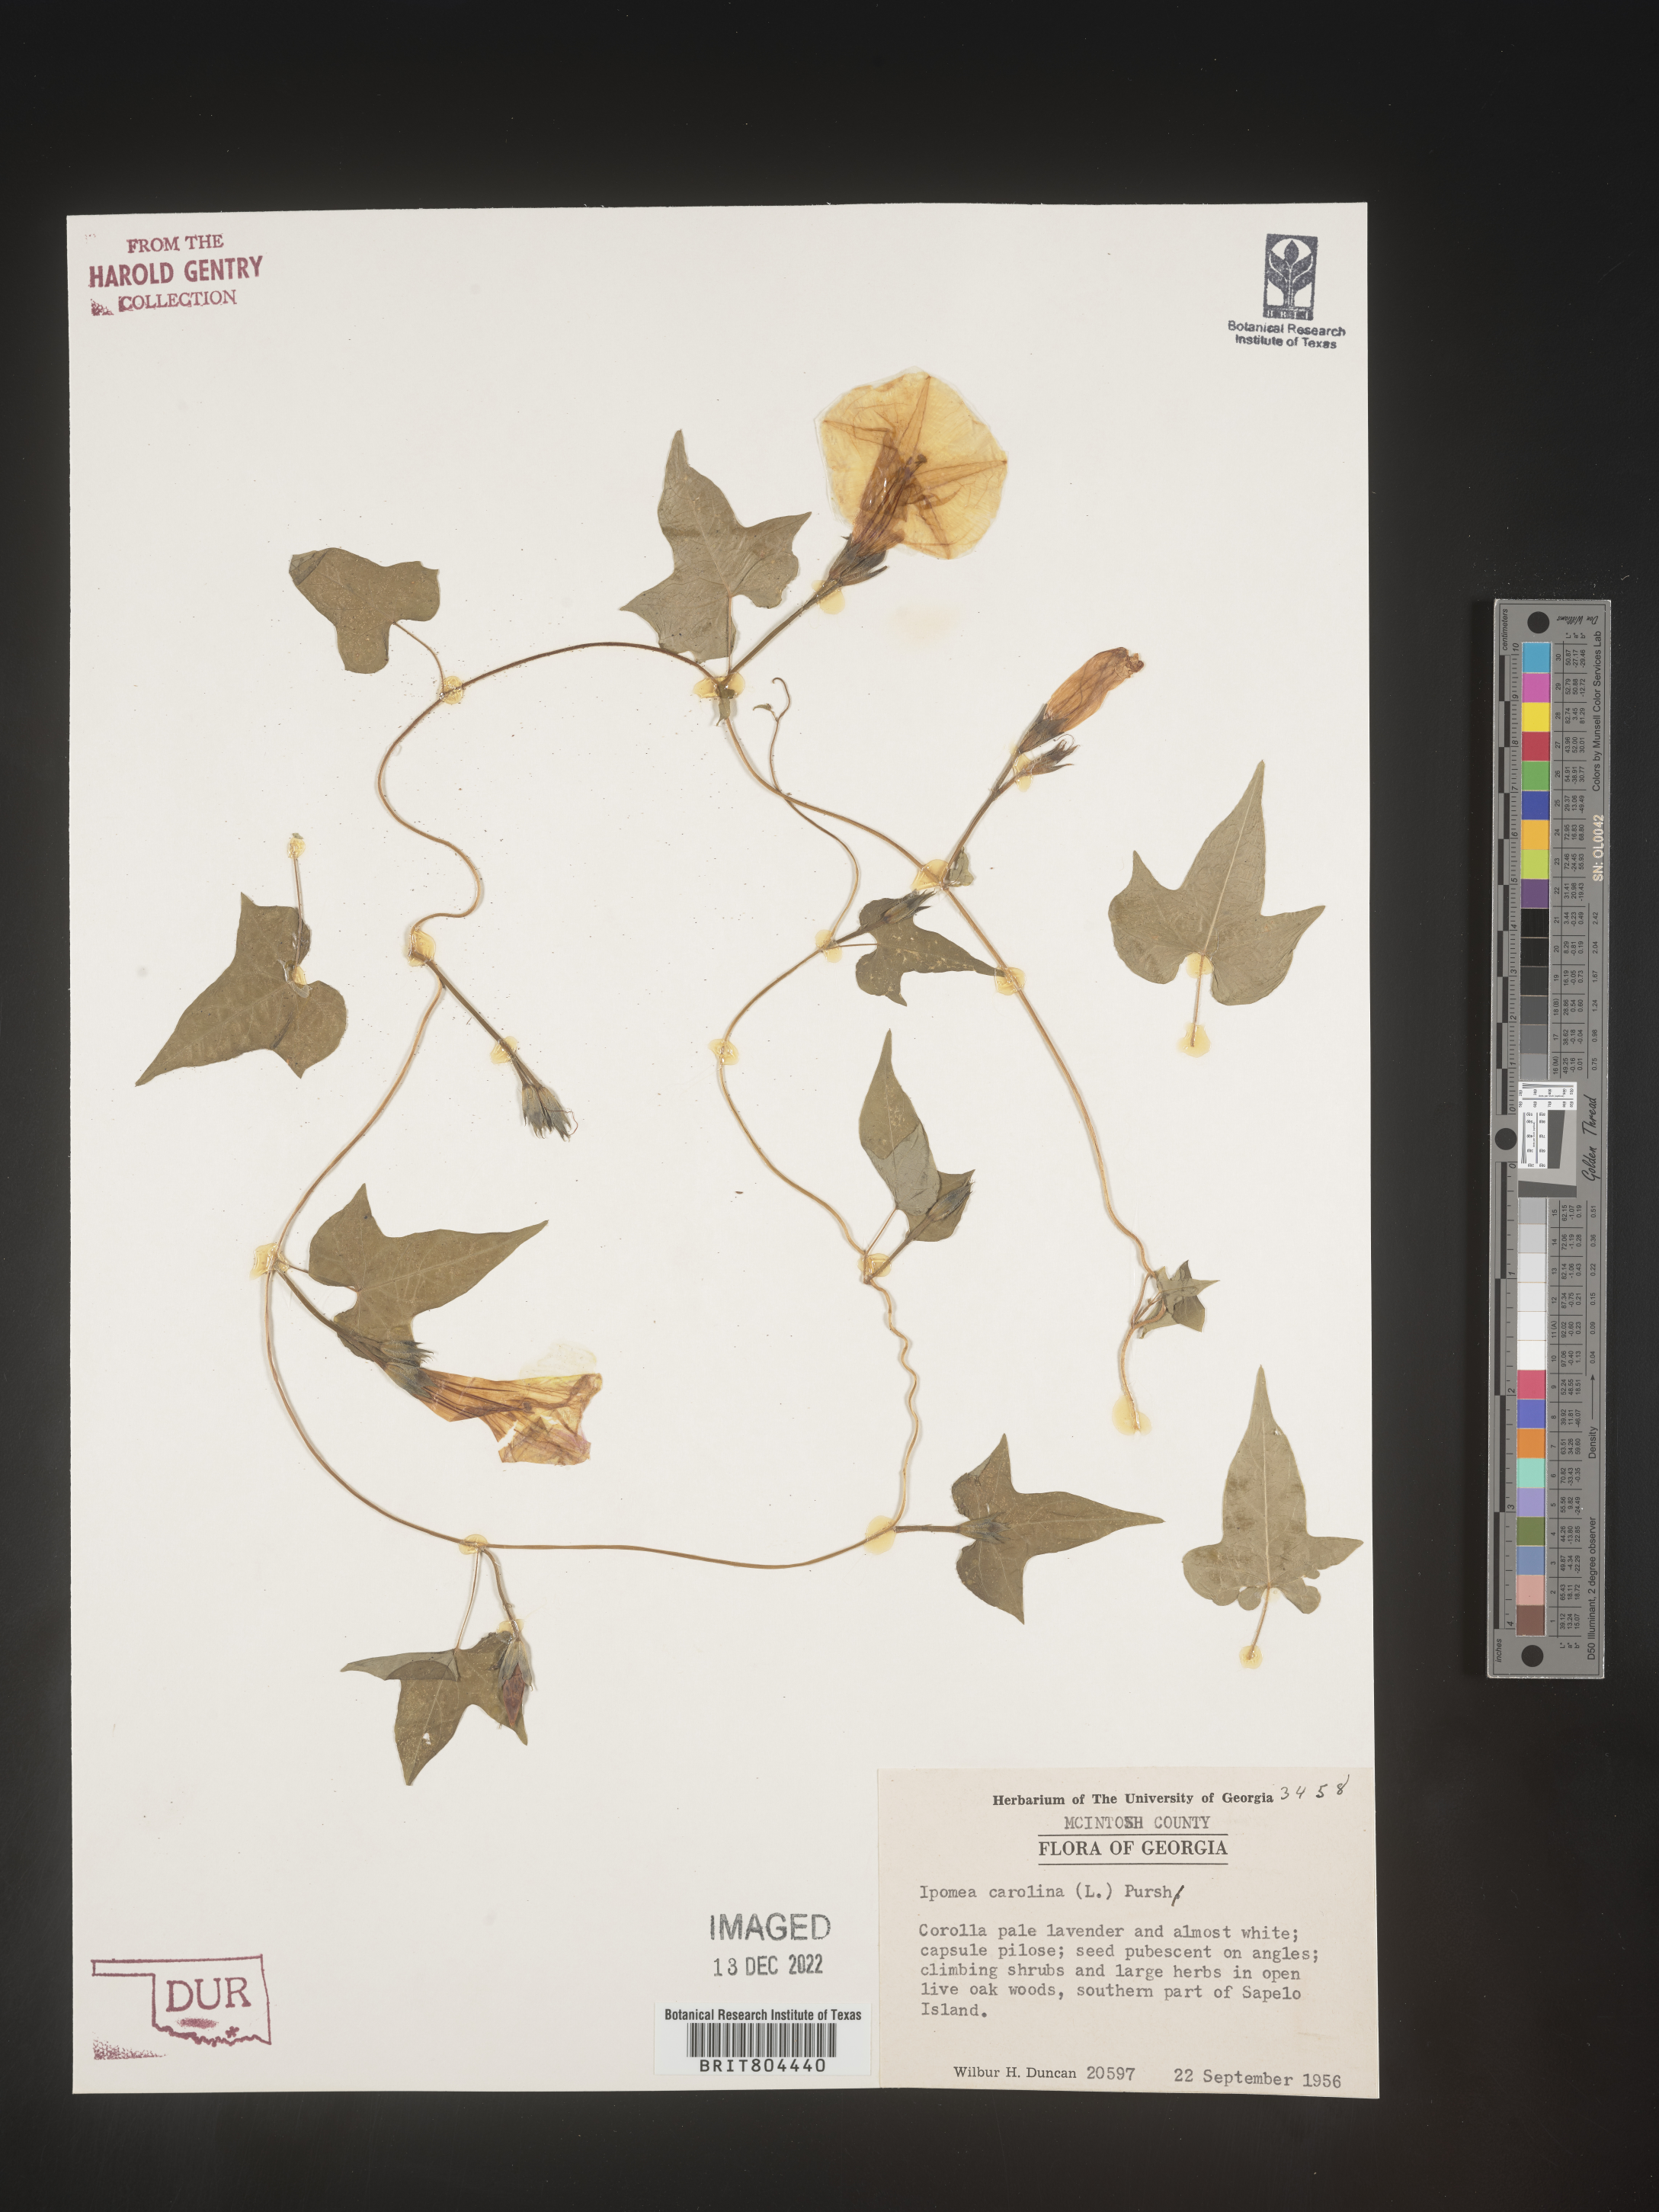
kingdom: Plantae
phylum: Tracheophyta
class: Magnoliopsida
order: Solanales
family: Convolvulaceae
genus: Ipomoea
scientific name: Ipomoea cordatotriloba
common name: Cotton morning glory
